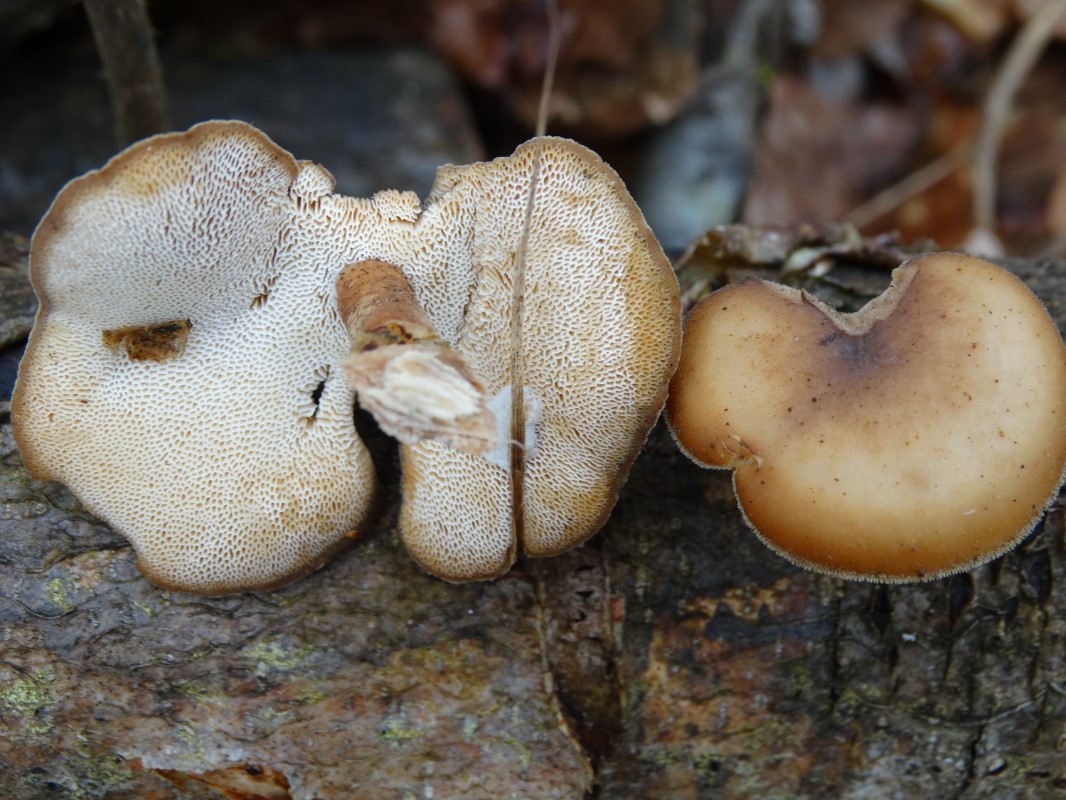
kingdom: Fungi
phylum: Basidiomycota
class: Agaricomycetes
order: Polyporales
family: Polyporaceae
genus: Lentinus
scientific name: Lentinus brumalis
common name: vinter-stilkporesvamp
